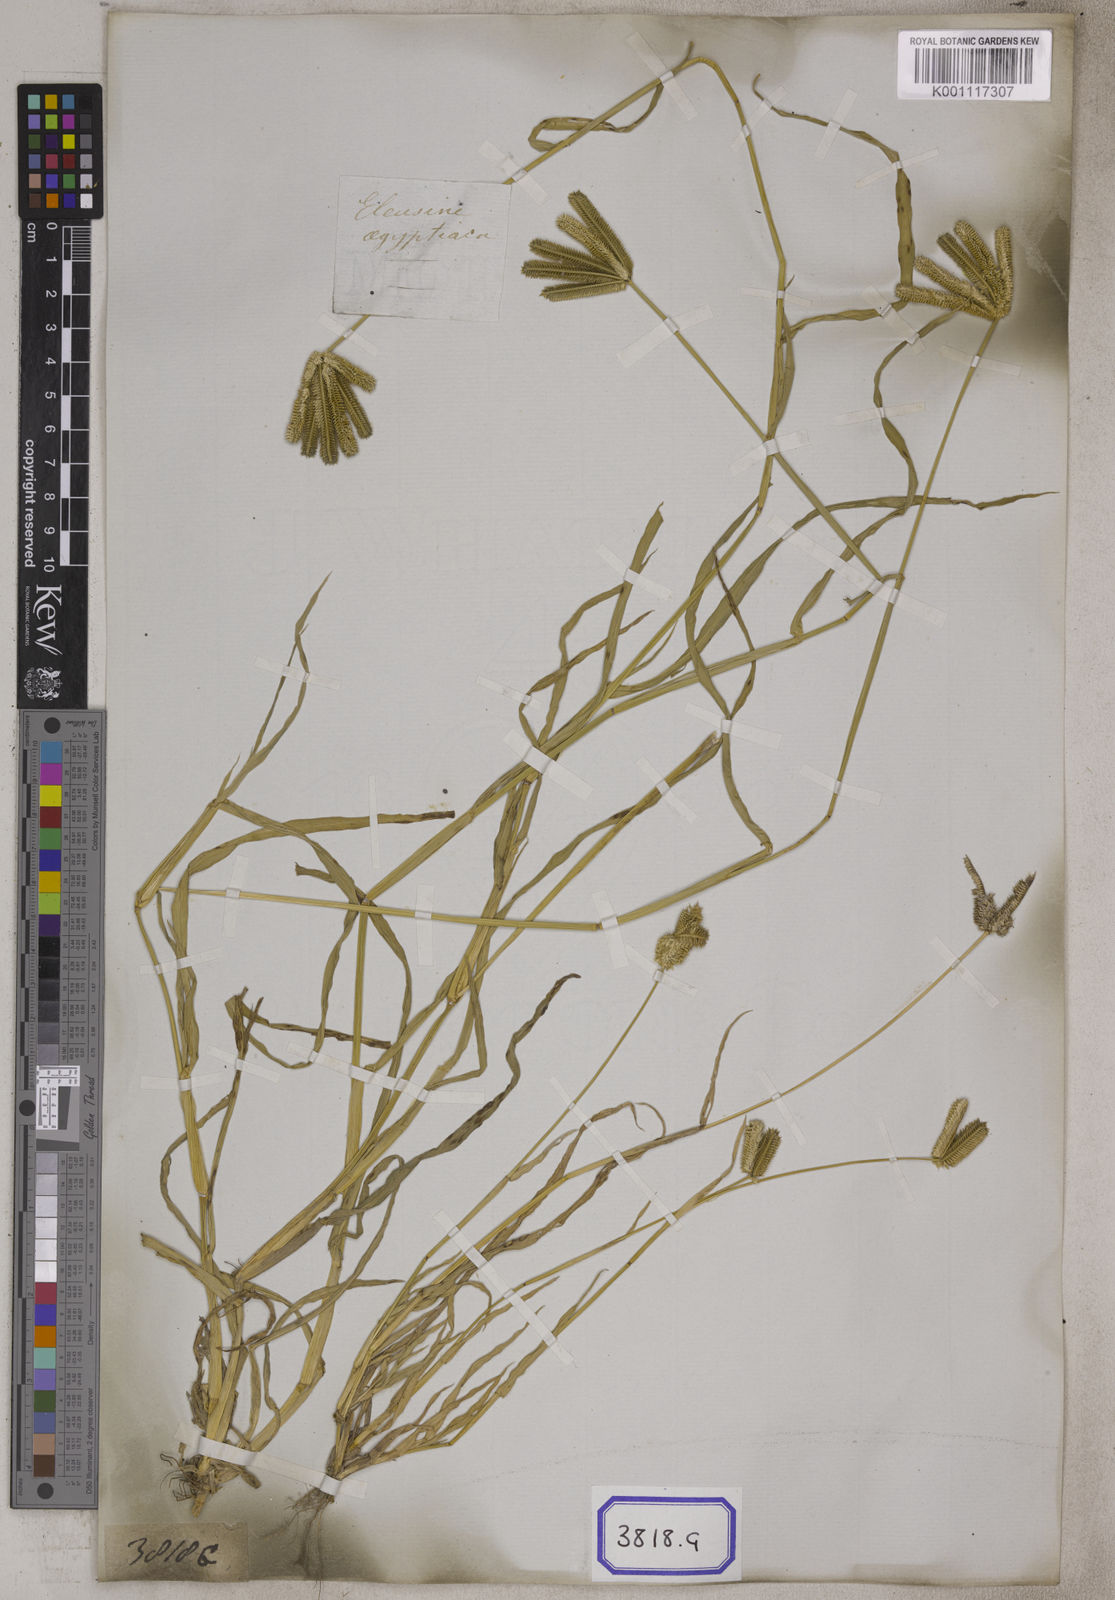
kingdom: Plantae
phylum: Tracheophyta
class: Liliopsida
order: Poales
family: Poaceae
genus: Eleusine
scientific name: Eleusine
